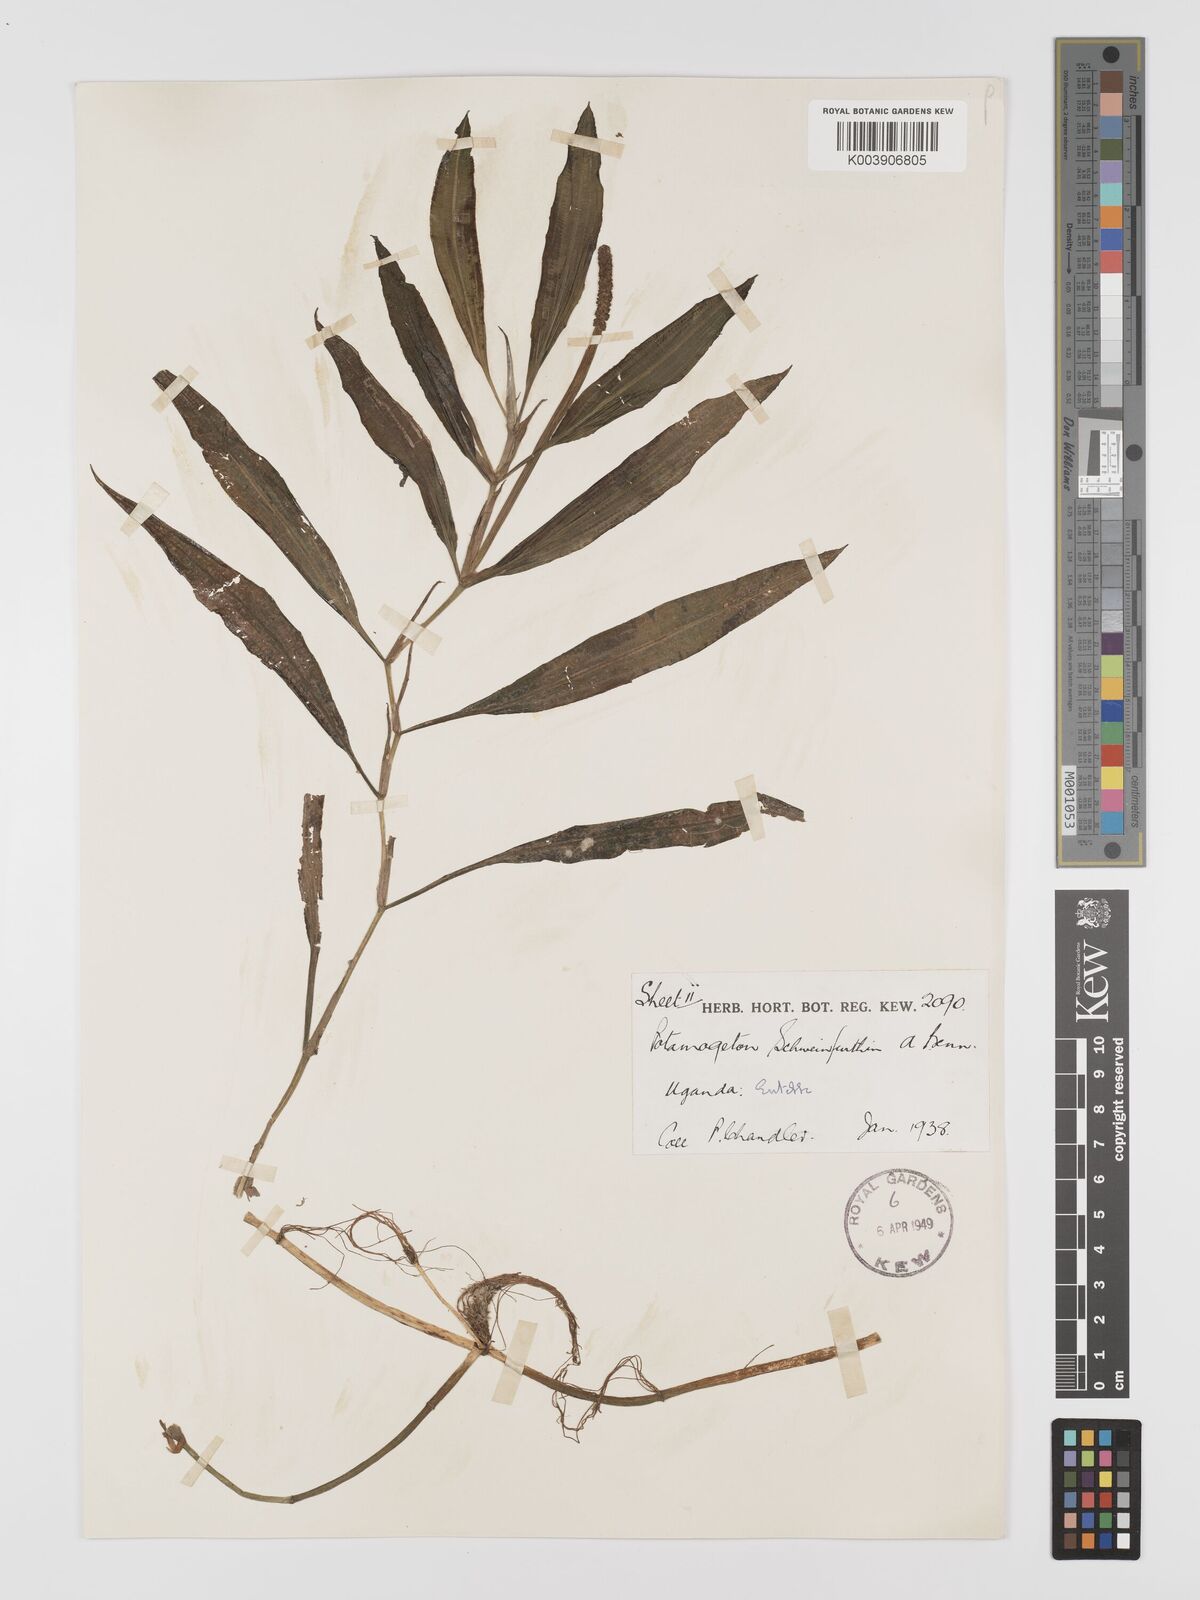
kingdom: Plantae
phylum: Tracheophyta
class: Liliopsida
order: Alismatales
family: Potamogetonaceae
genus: Potamogeton
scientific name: Potamogeton schweinfurthii
